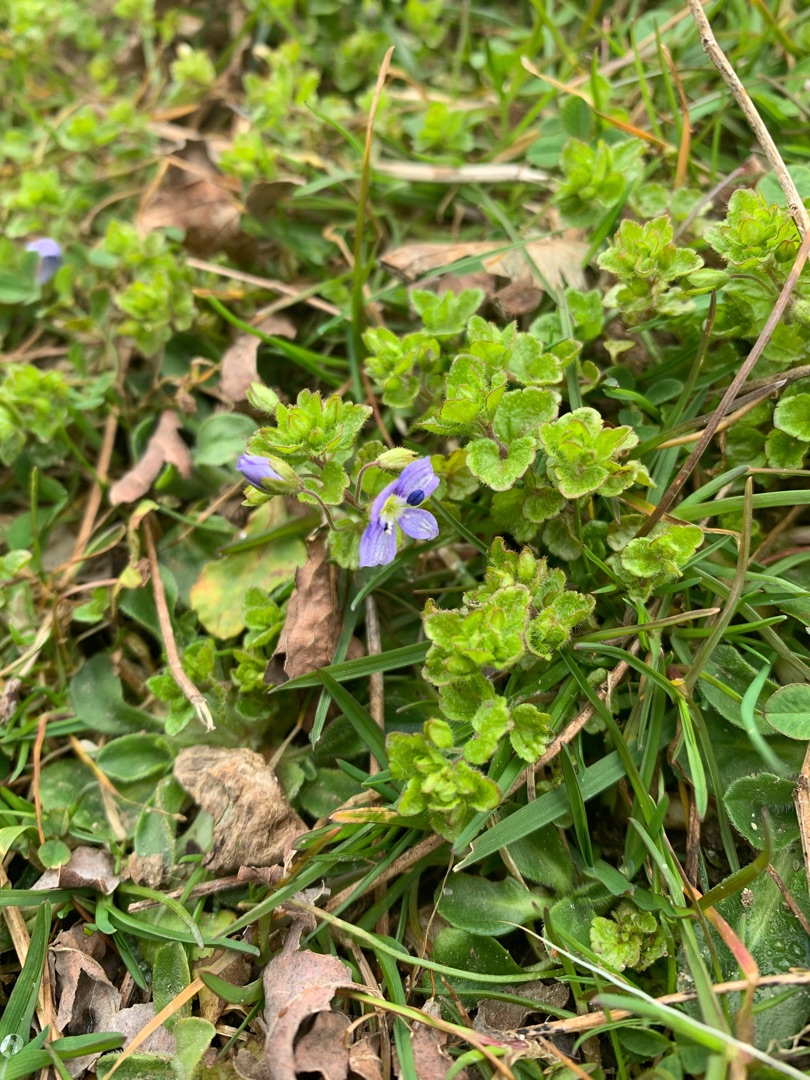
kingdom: Plantae
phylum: Tracheophyta
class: Magnoliopsida
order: Lamiales
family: Plantaginaceae
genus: Veronica
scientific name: Veronica filiformis
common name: Tråd-ærenpris
